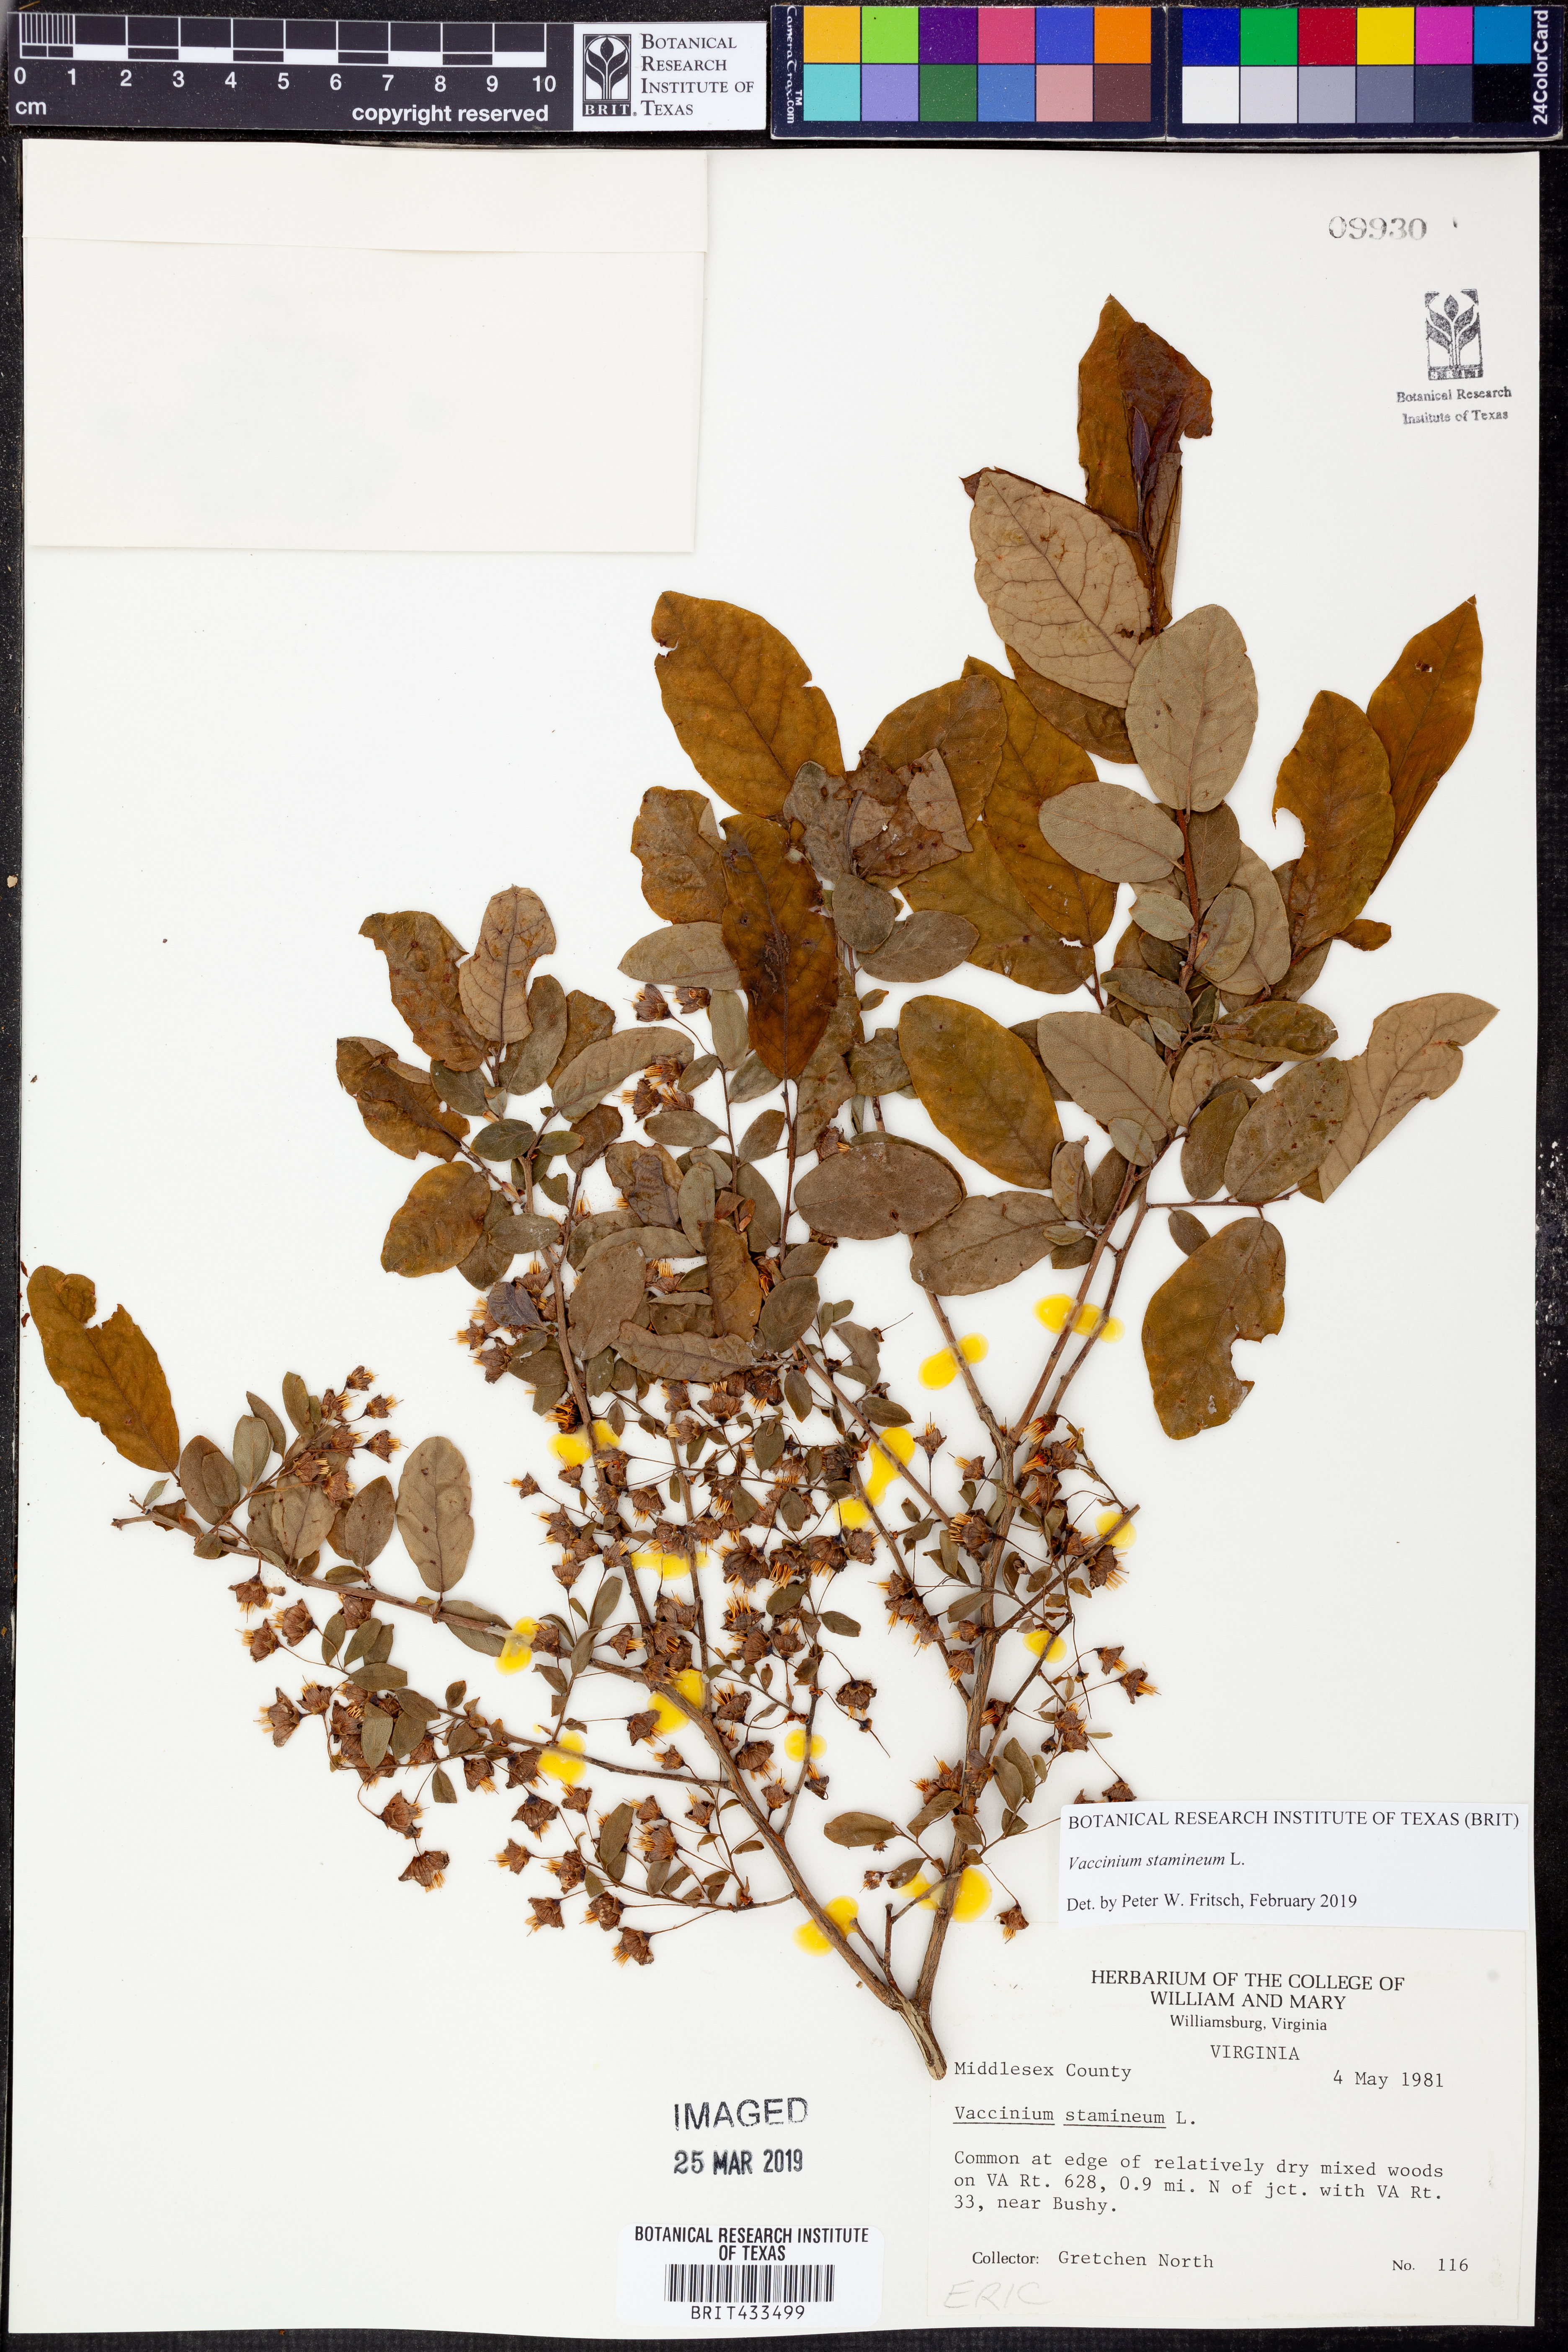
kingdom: Plantae
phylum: Tracheophyta
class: Magnoliopsida
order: Ericales
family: Ericaceae
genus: Vaccinium
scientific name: Vaccinium stamineum
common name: Deerberry
